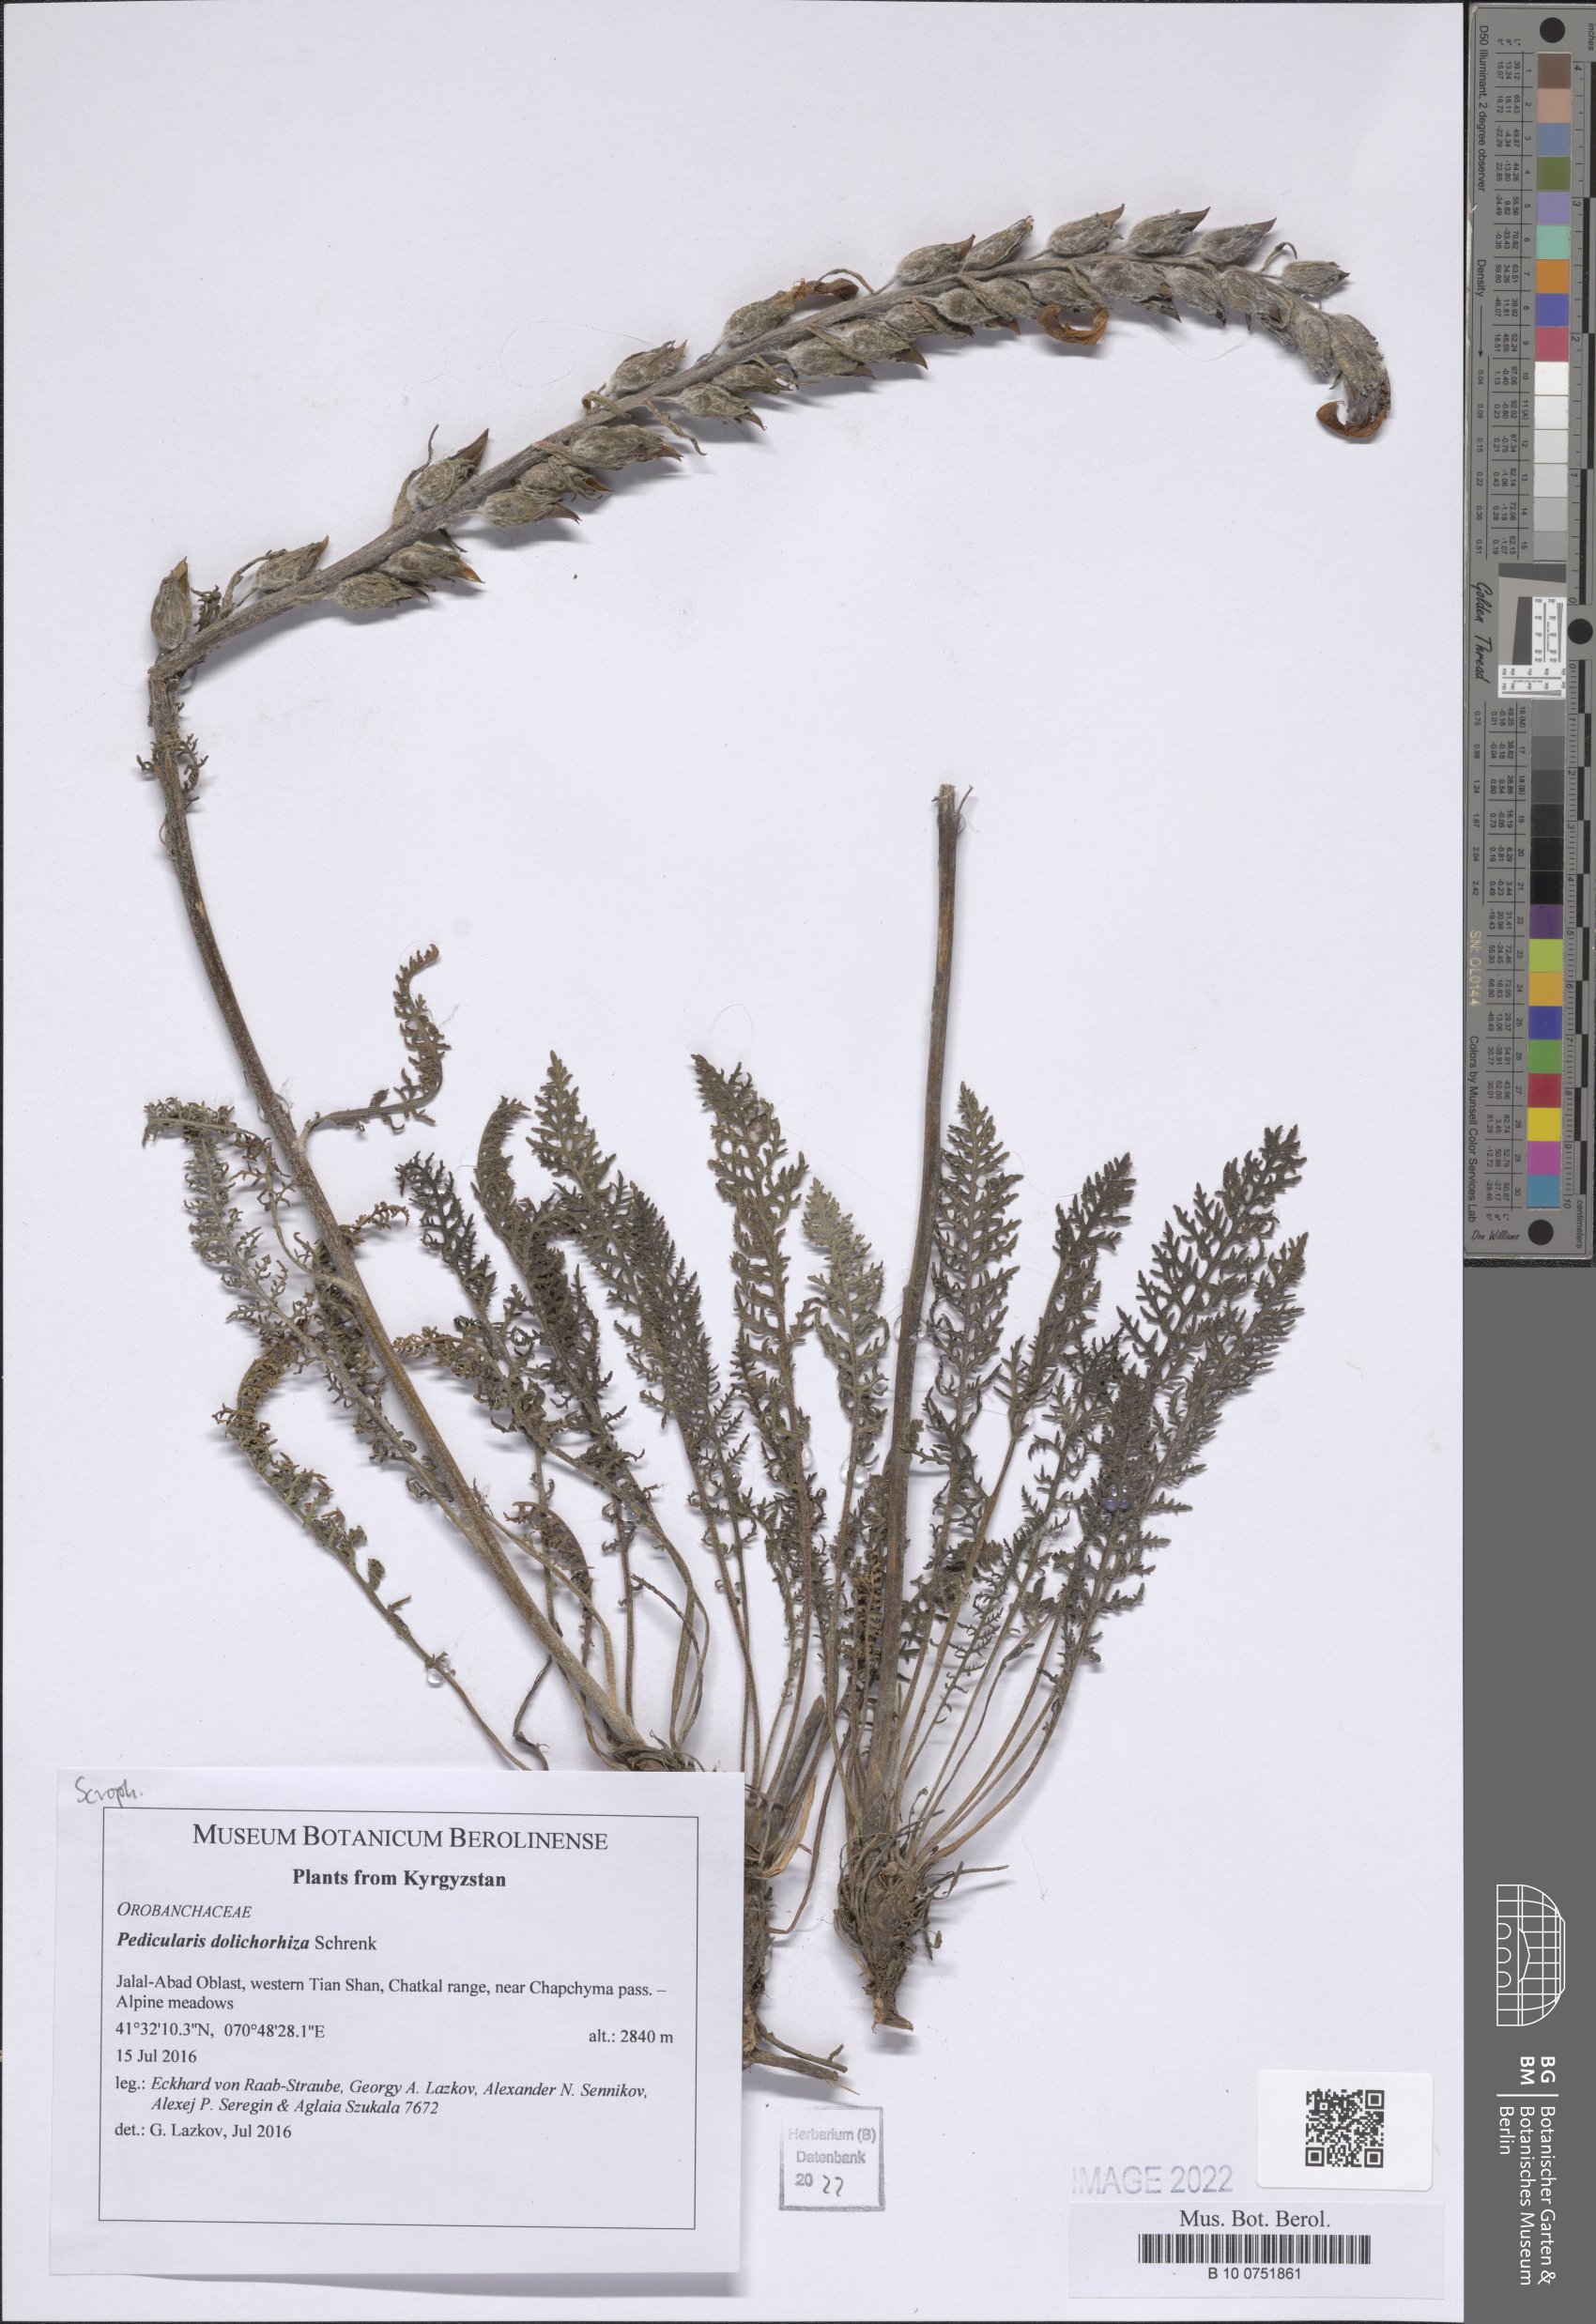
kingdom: Plantae
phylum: Tracheophyta
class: Magnoliopsida
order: Lamiales
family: Orobanchaceae
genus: Pedicularis
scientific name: Pedicularis dolichorrhiza
